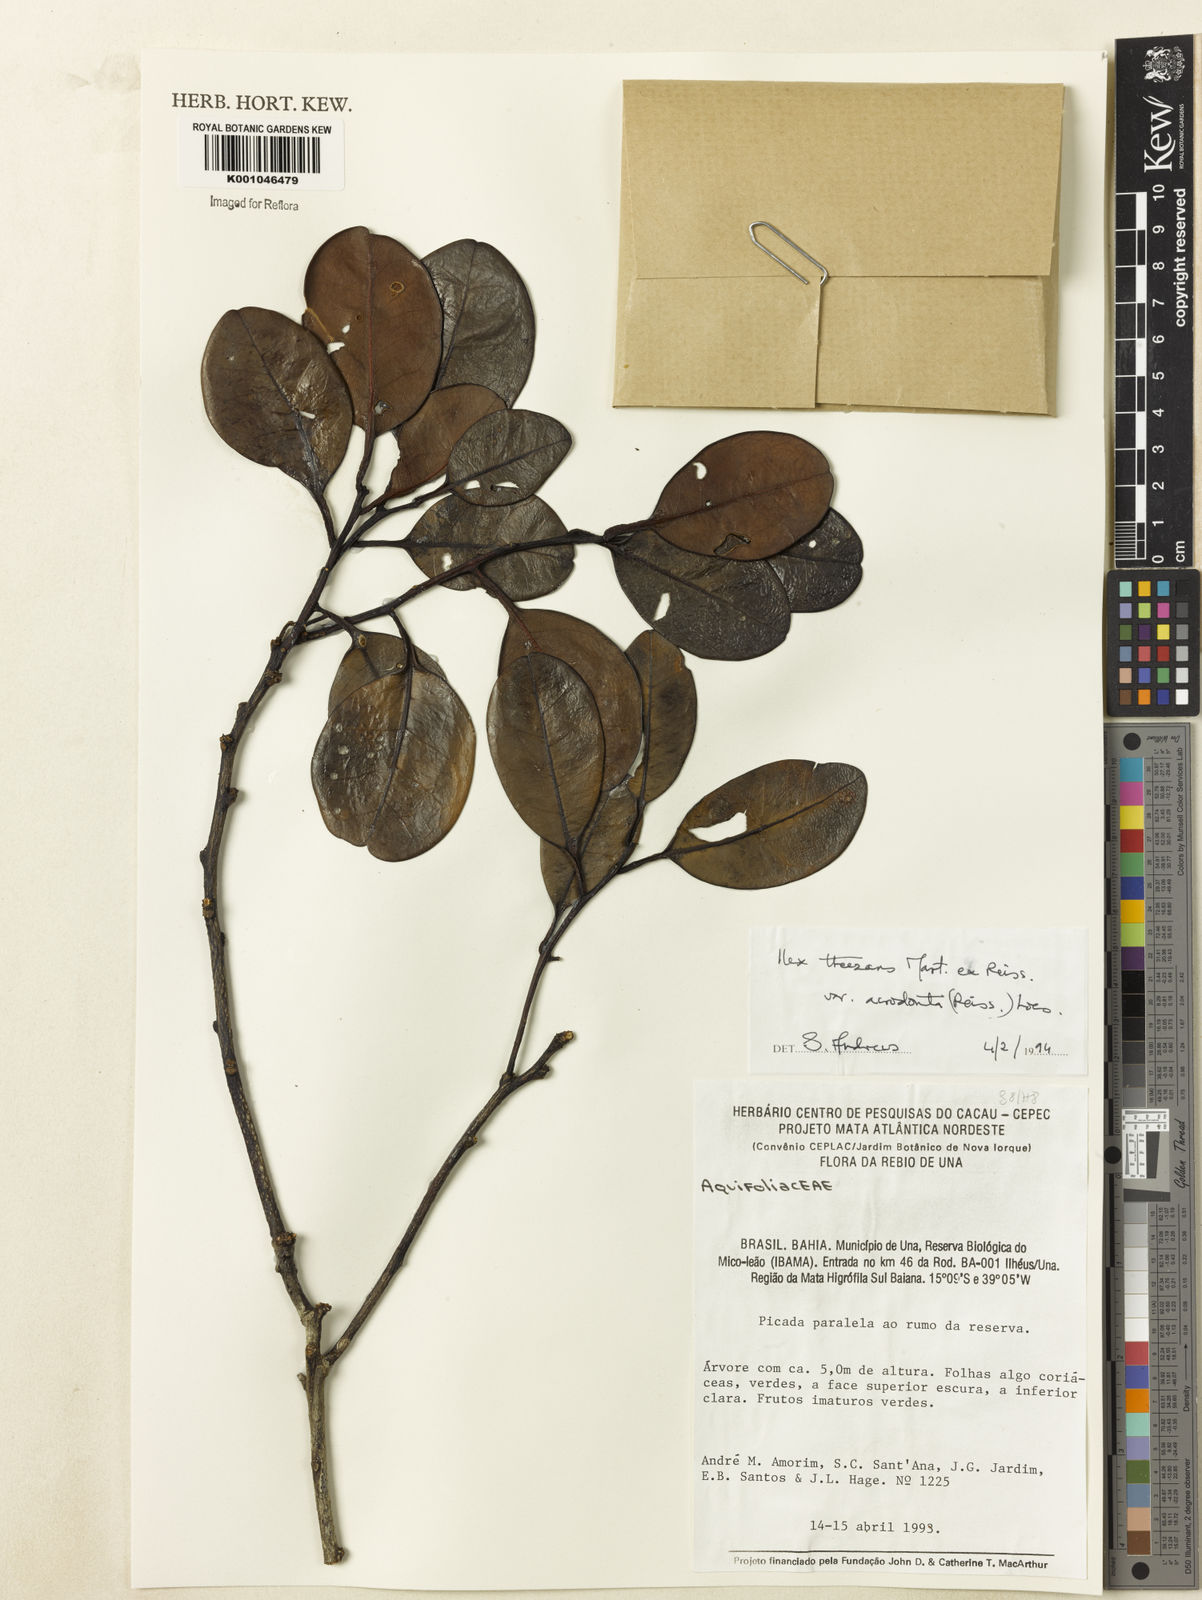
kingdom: Plantae
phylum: Tracheophyta
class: Magnoliopsida
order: Aquifoliales
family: Aquifoliaceae
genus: Ilex
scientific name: Ilex paraguariensis
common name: Paraguay tea
